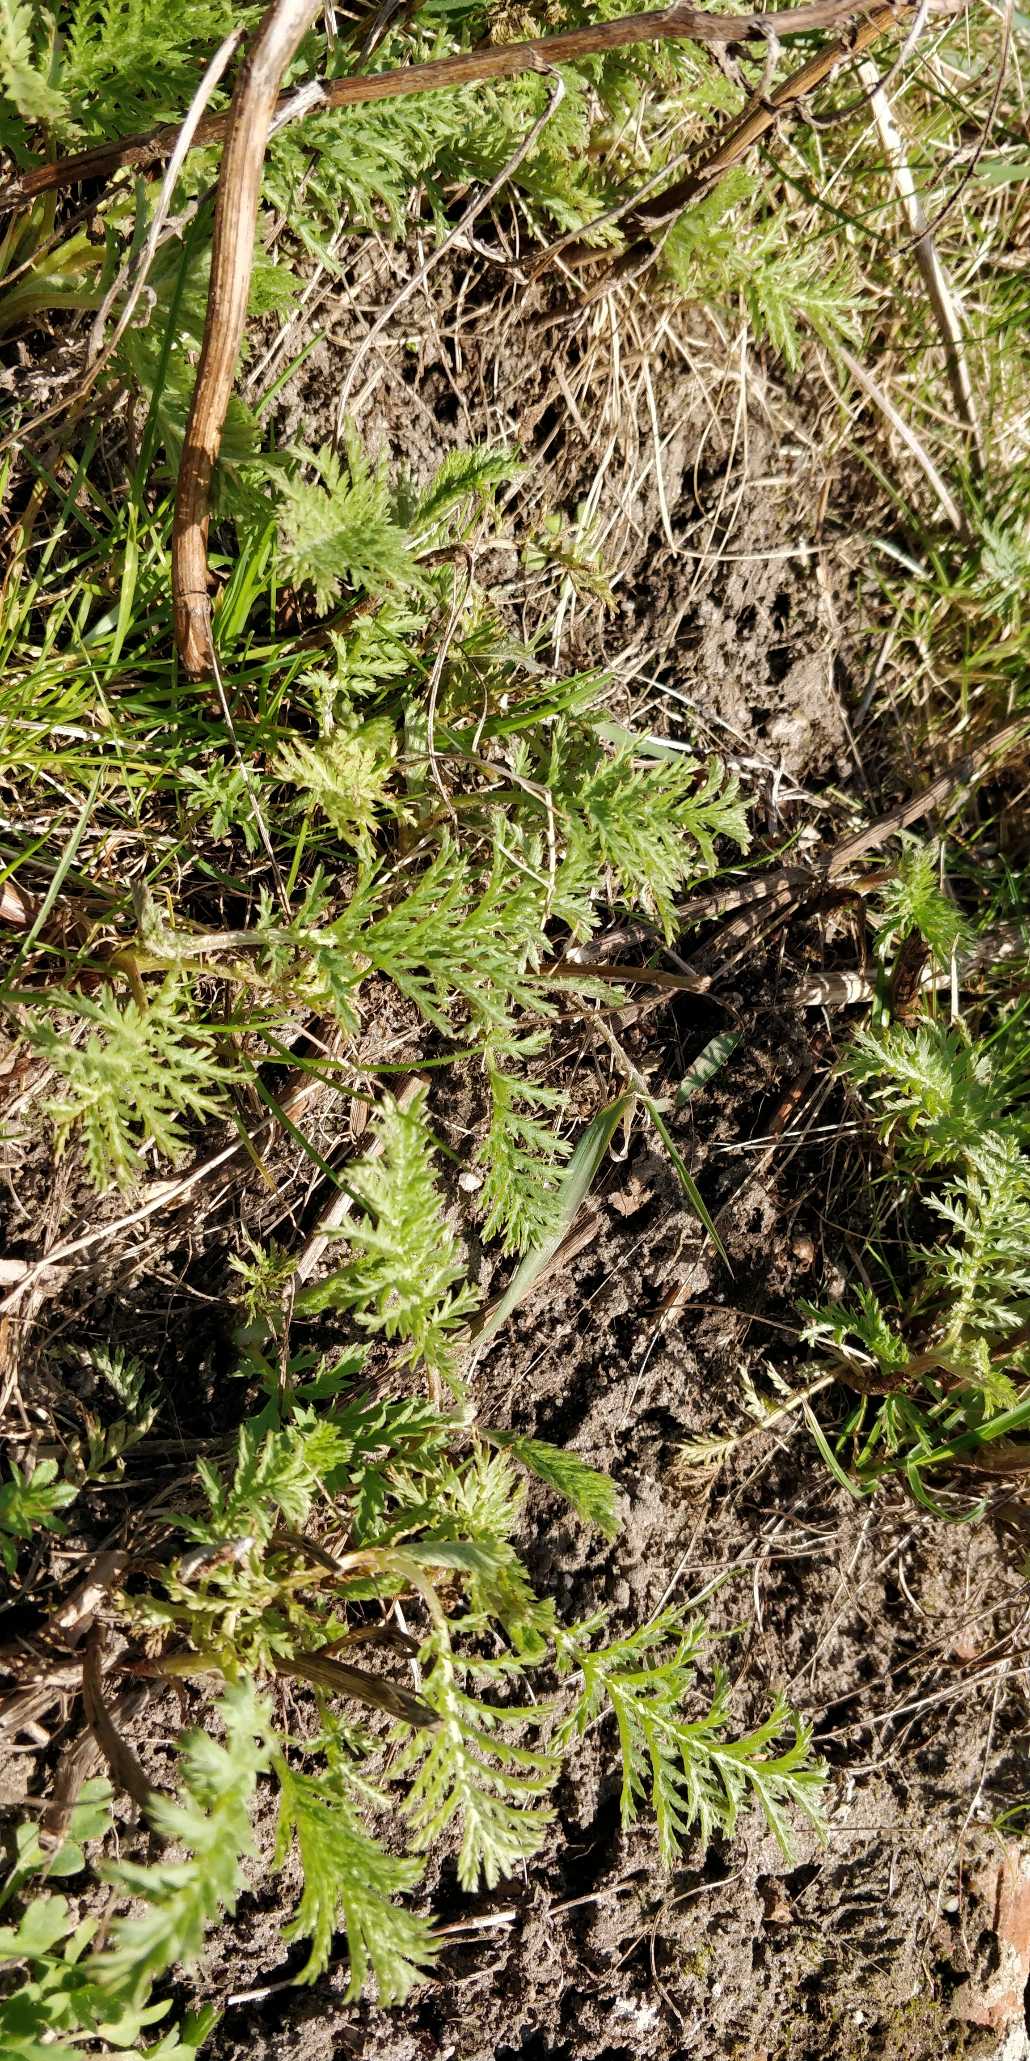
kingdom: Plantae
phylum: Tracheophyta
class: Magnoliopsida
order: Asterales
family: Asteraceae
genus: Tanacetum
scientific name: Tanacetum vulgare
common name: Rejnfan
